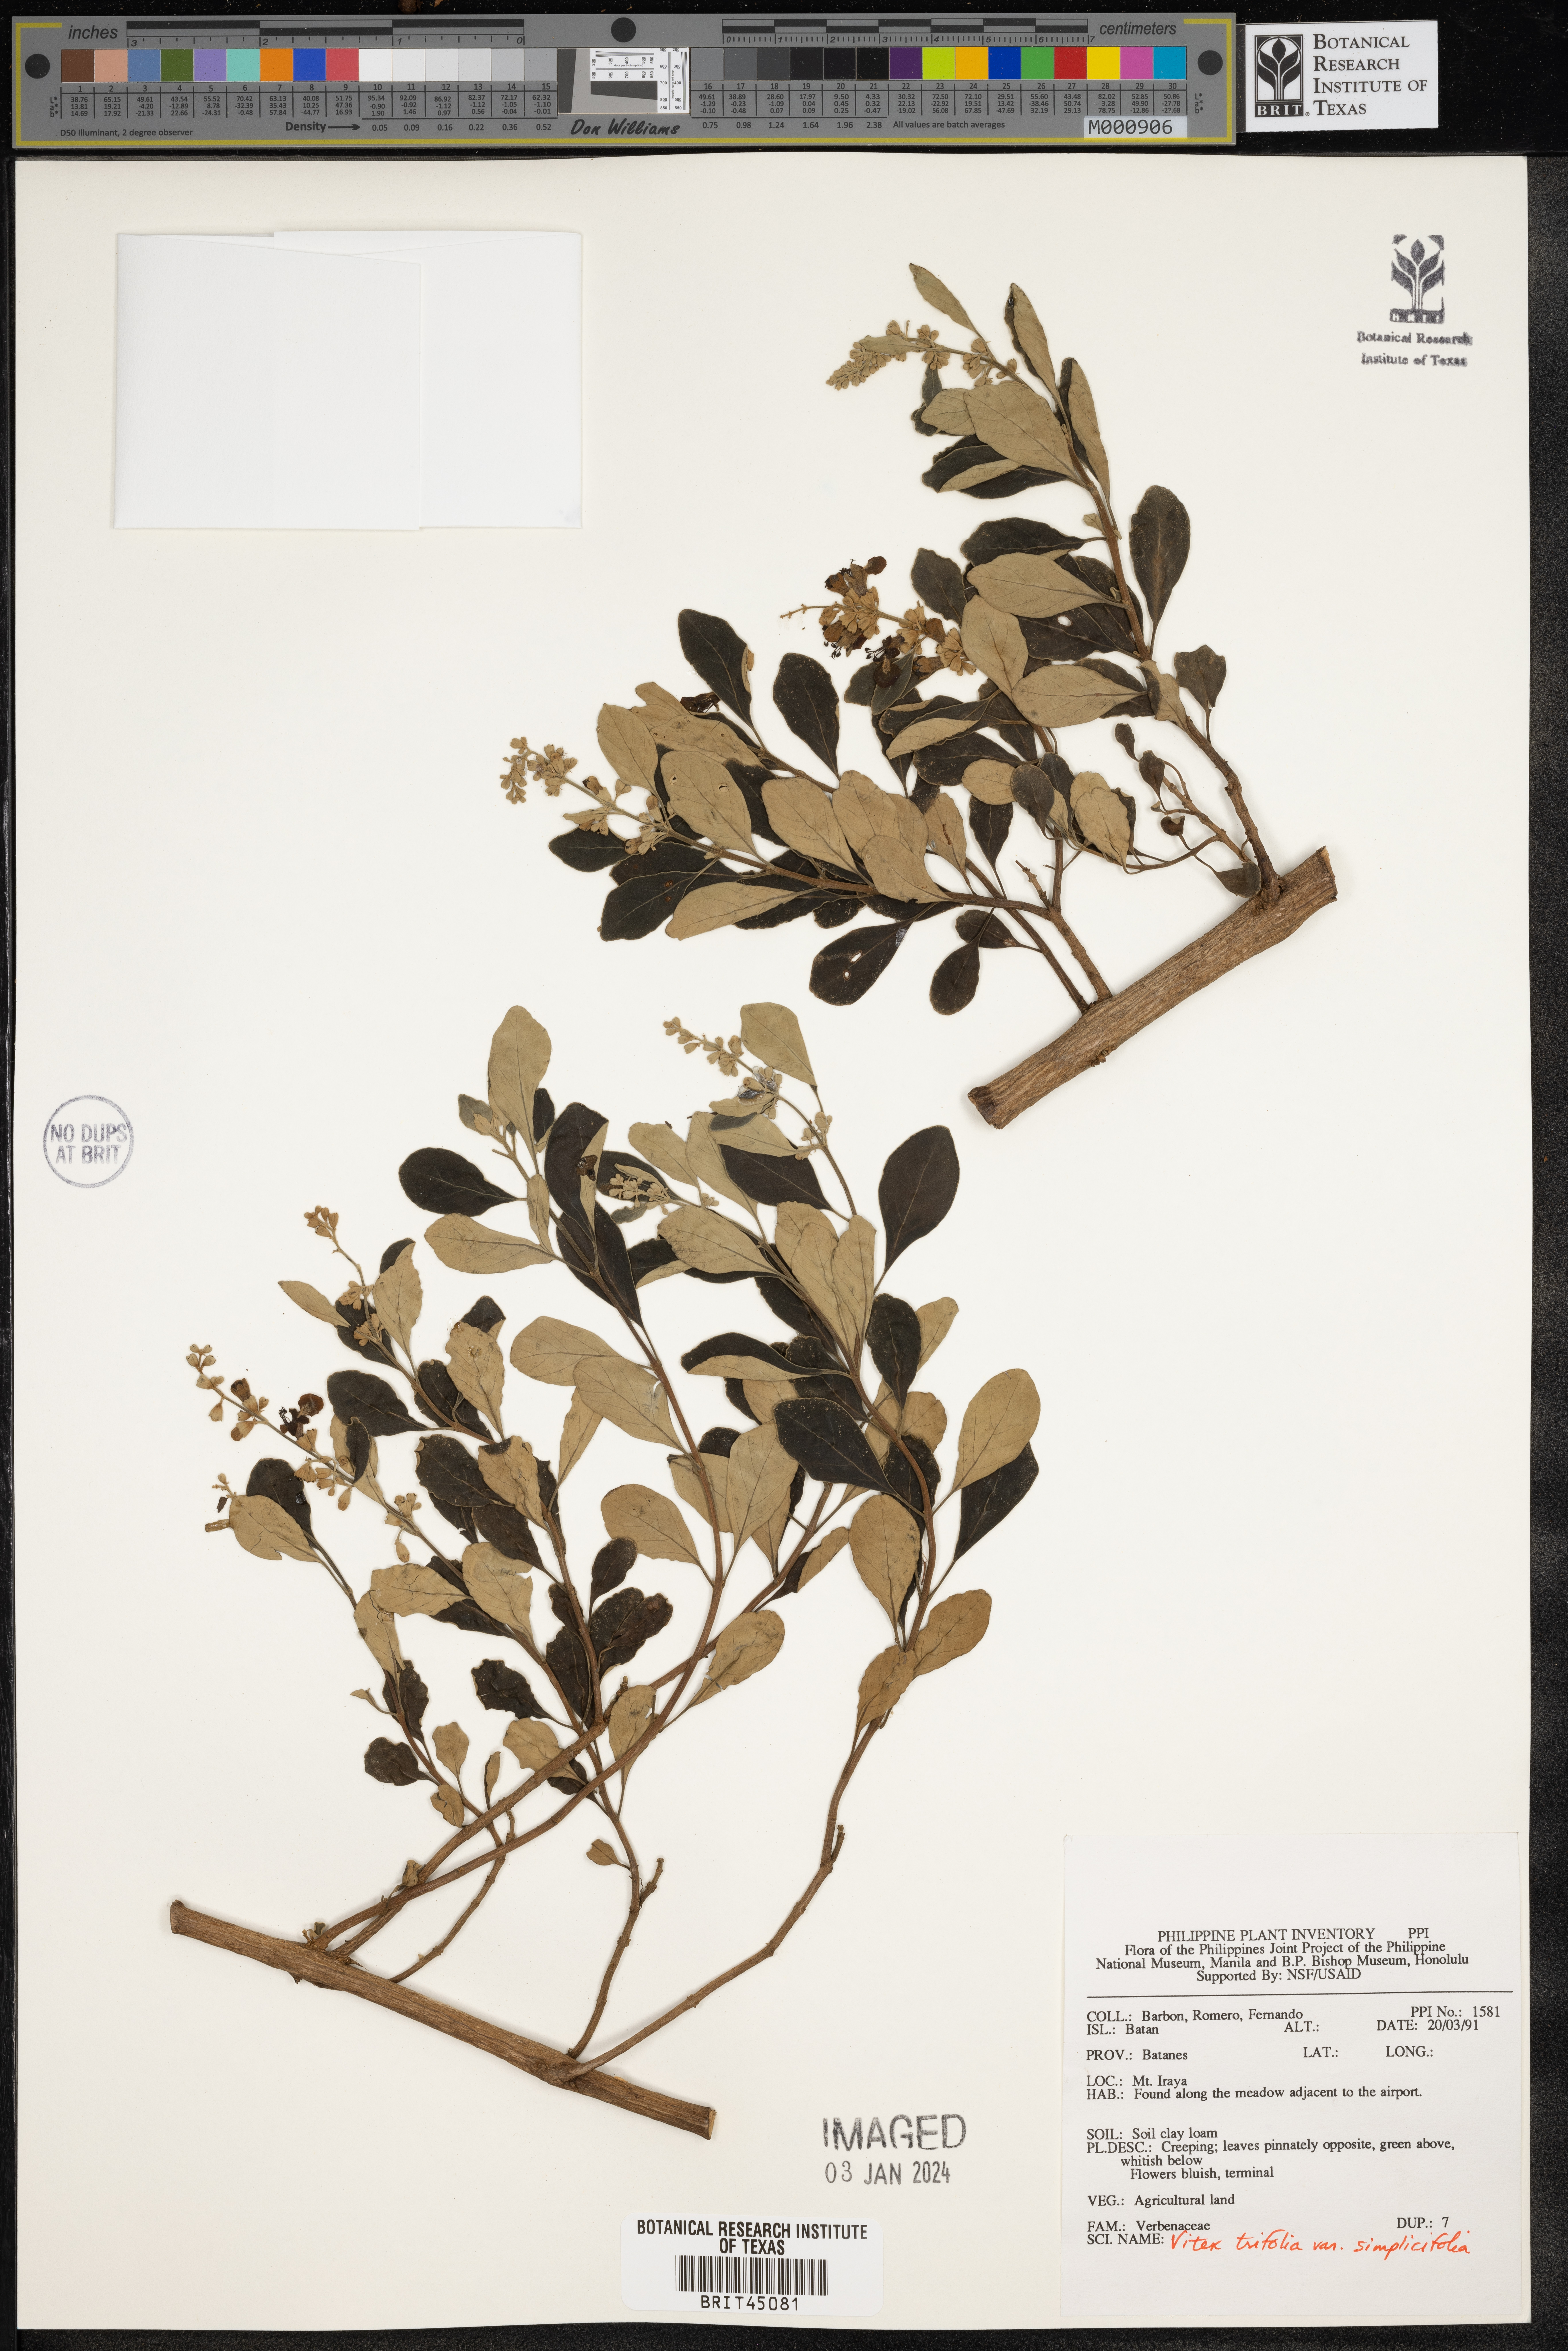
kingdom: Plantae
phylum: Tracheophyta
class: Magnoliopsida
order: Lamiales
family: Lamiaceae
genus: Vitex
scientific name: Vitex trifolia
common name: Simpleleaf chastetree
